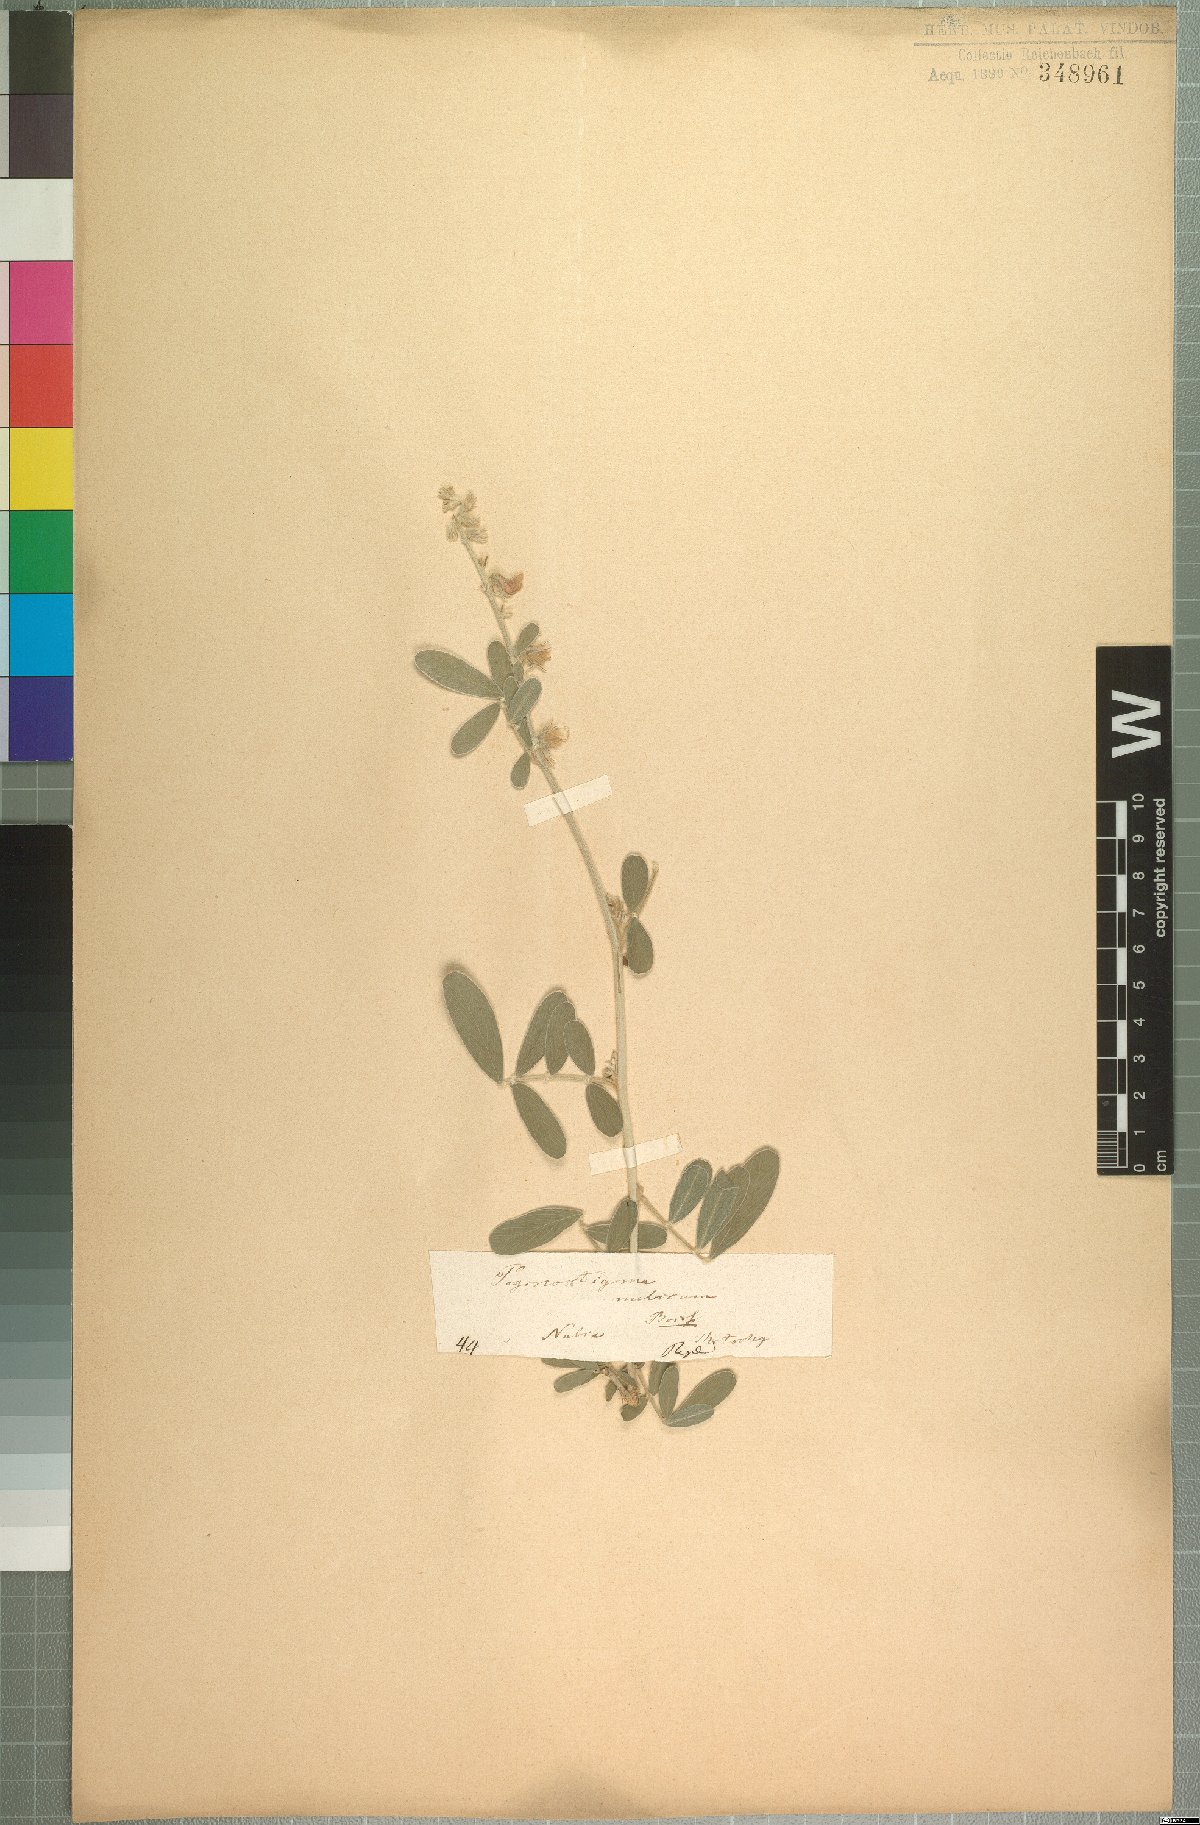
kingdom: Plantae
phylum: Tracheophyta
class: Magnoliopsida
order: Fabales
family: Fabaceae
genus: Tephrosia
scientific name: Tephrosia nubica
